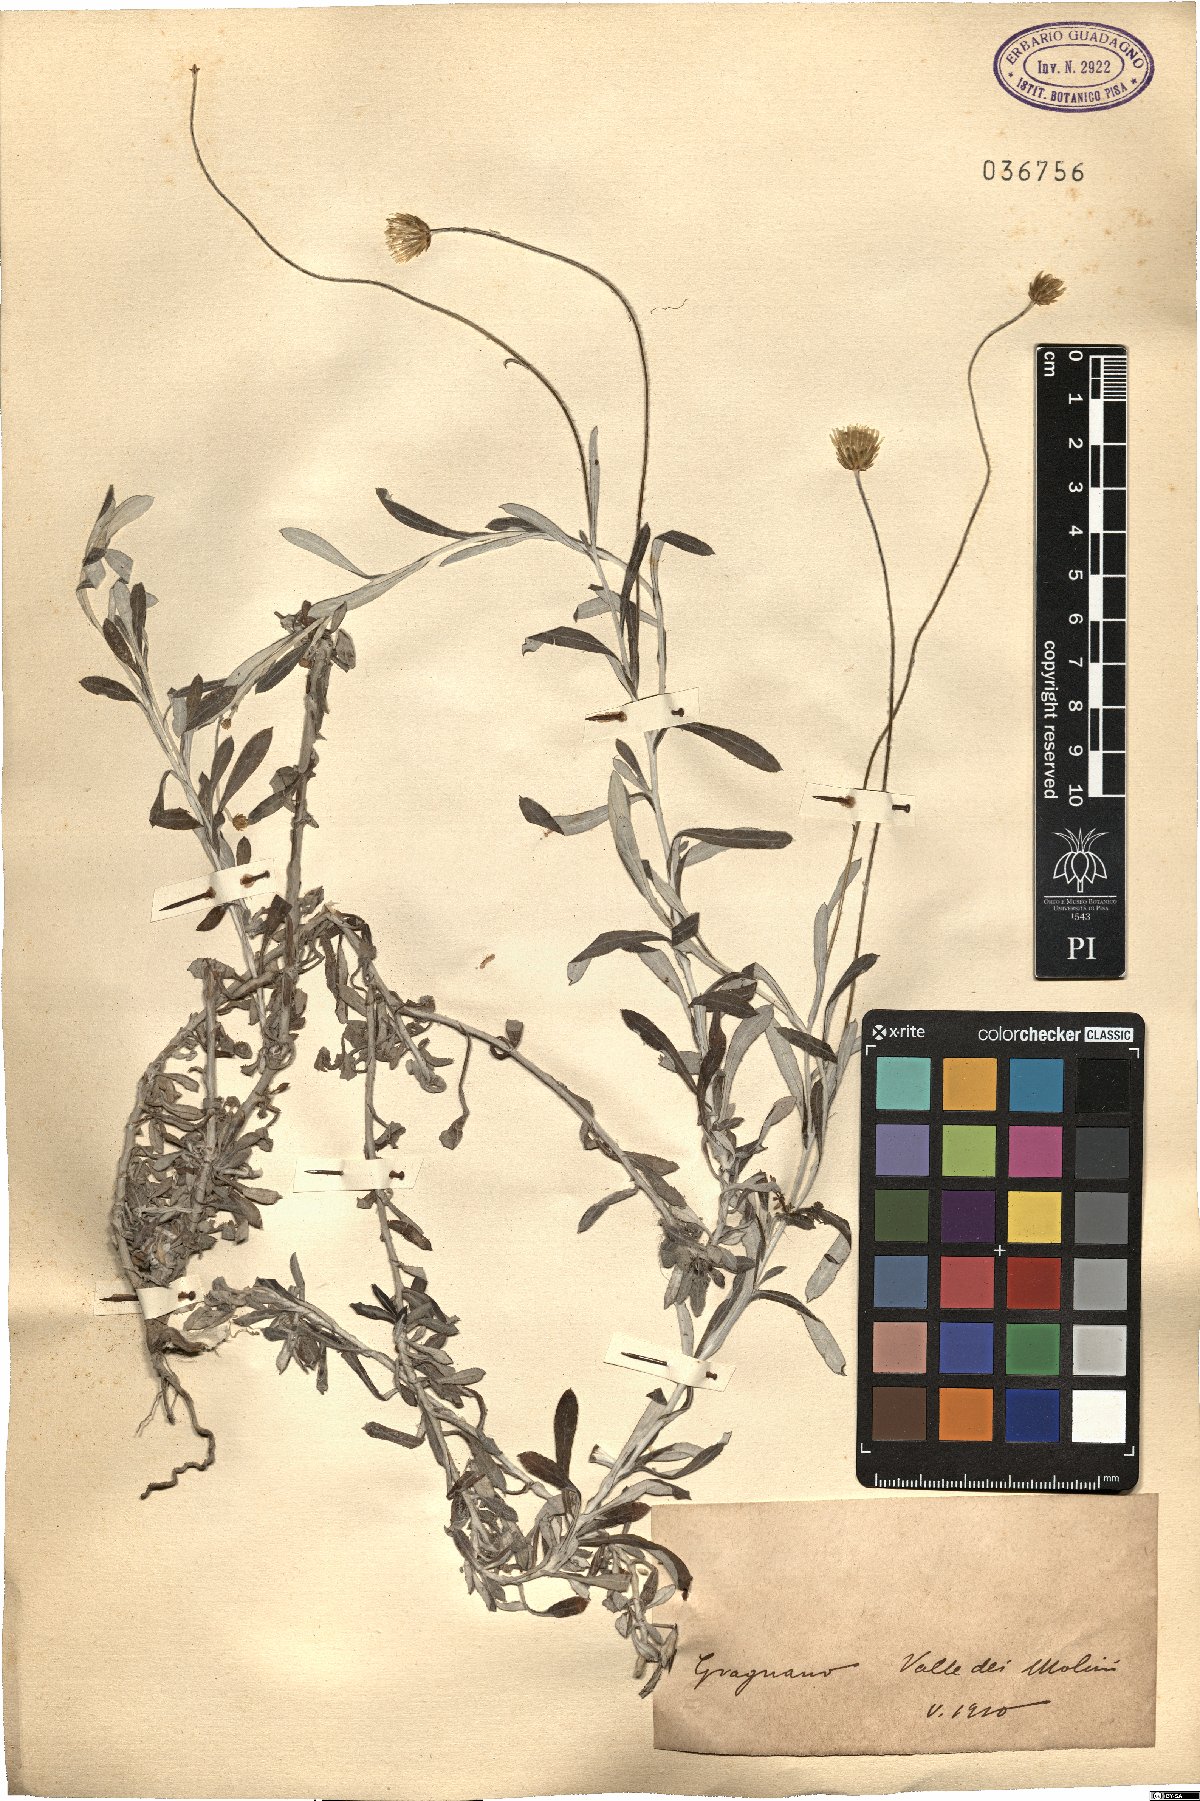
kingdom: Plantae
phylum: Tracheophyta
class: Magnoliopsida
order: Asterales
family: Asteraceae
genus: Phagnalon
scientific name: Phagnalon
